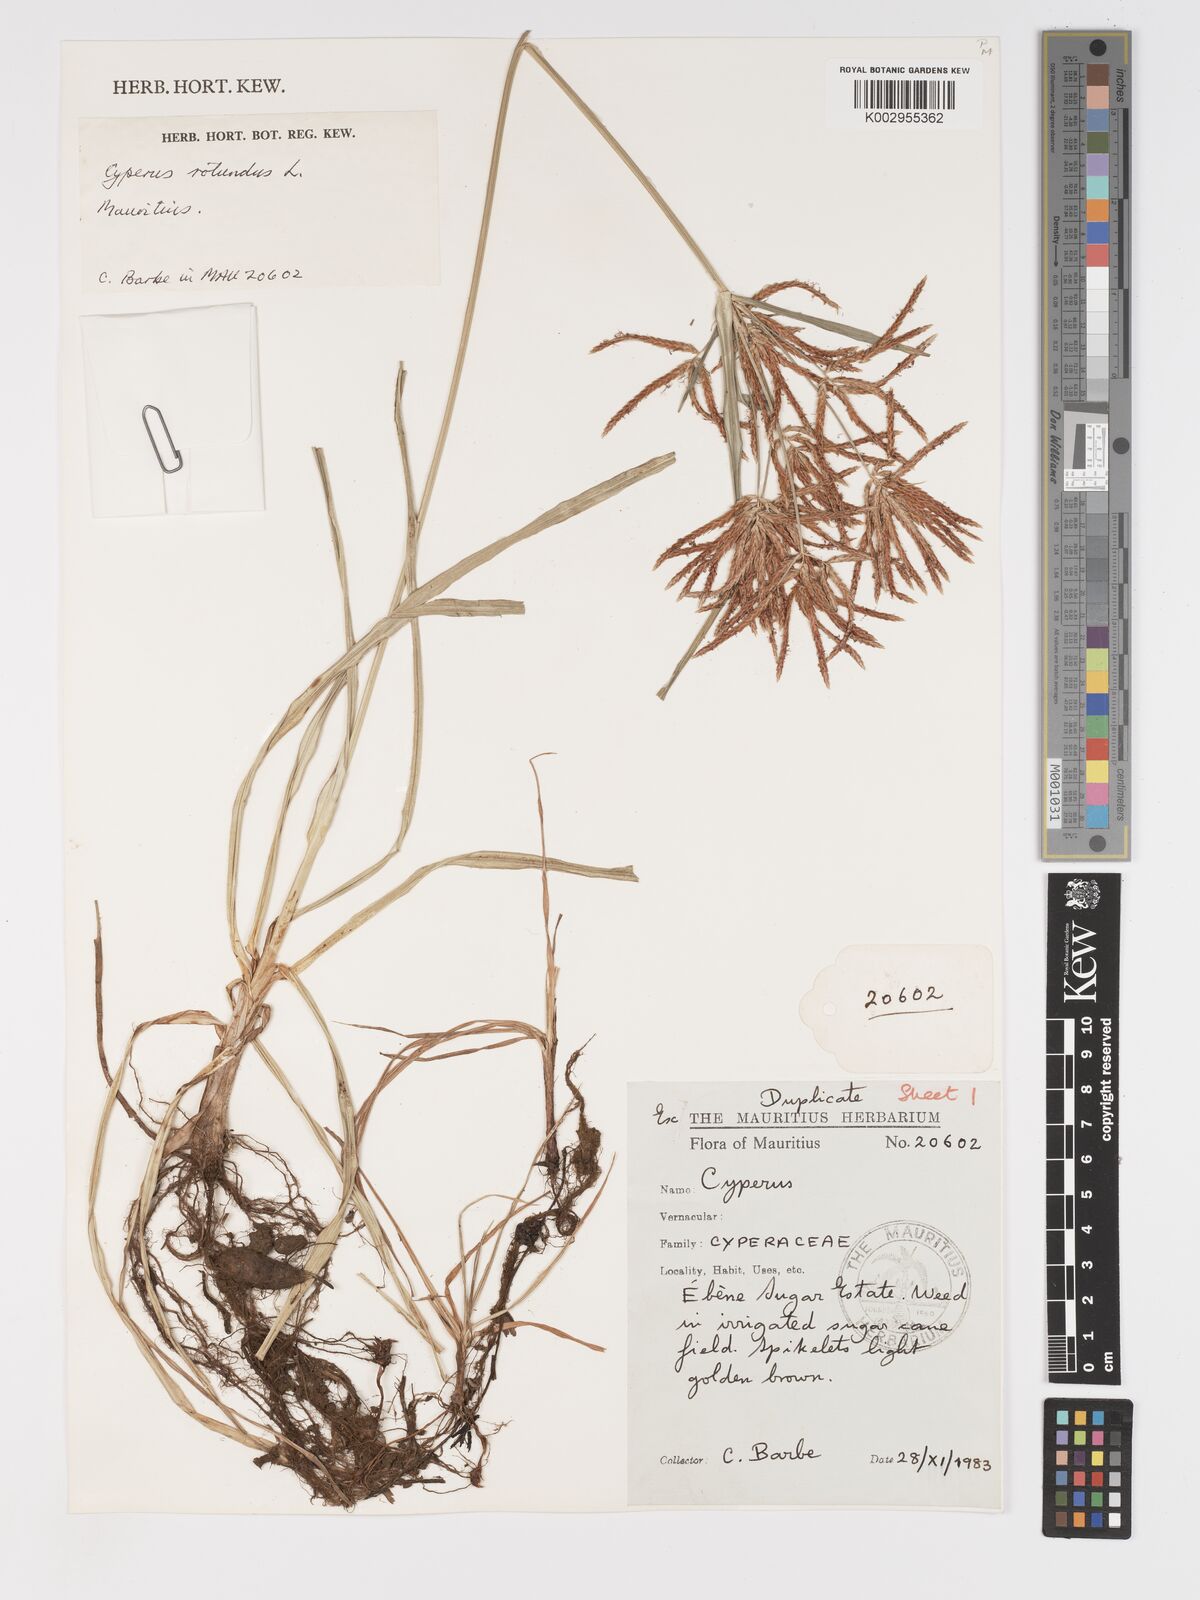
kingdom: Plantae
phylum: Tracheophyta
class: Liliopsida
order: Poales
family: Cyperaceae
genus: Cyperus
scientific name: Cyperus rotundus
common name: Nutgrass
